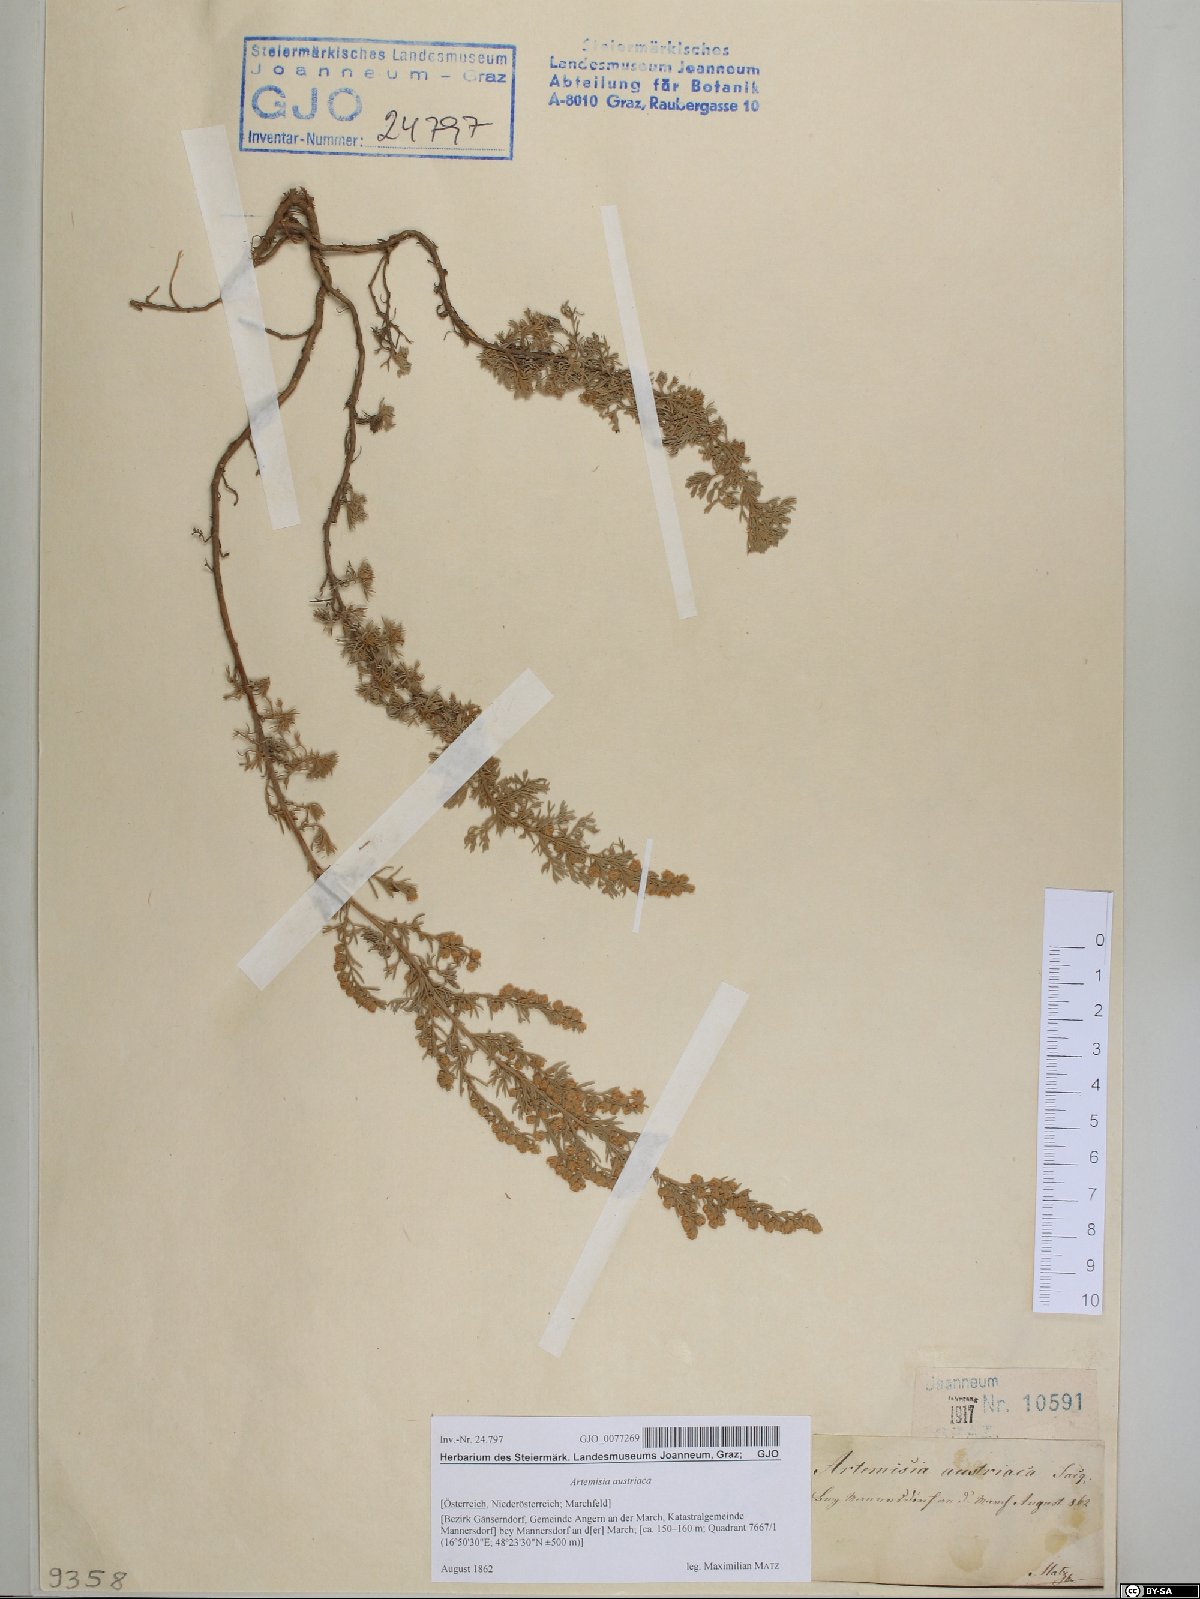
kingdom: Plantae
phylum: Tracheophyta
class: Magnoliopsida
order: Asterales
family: Asteraceae
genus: Artemisia
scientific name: Artemisia austriaca
